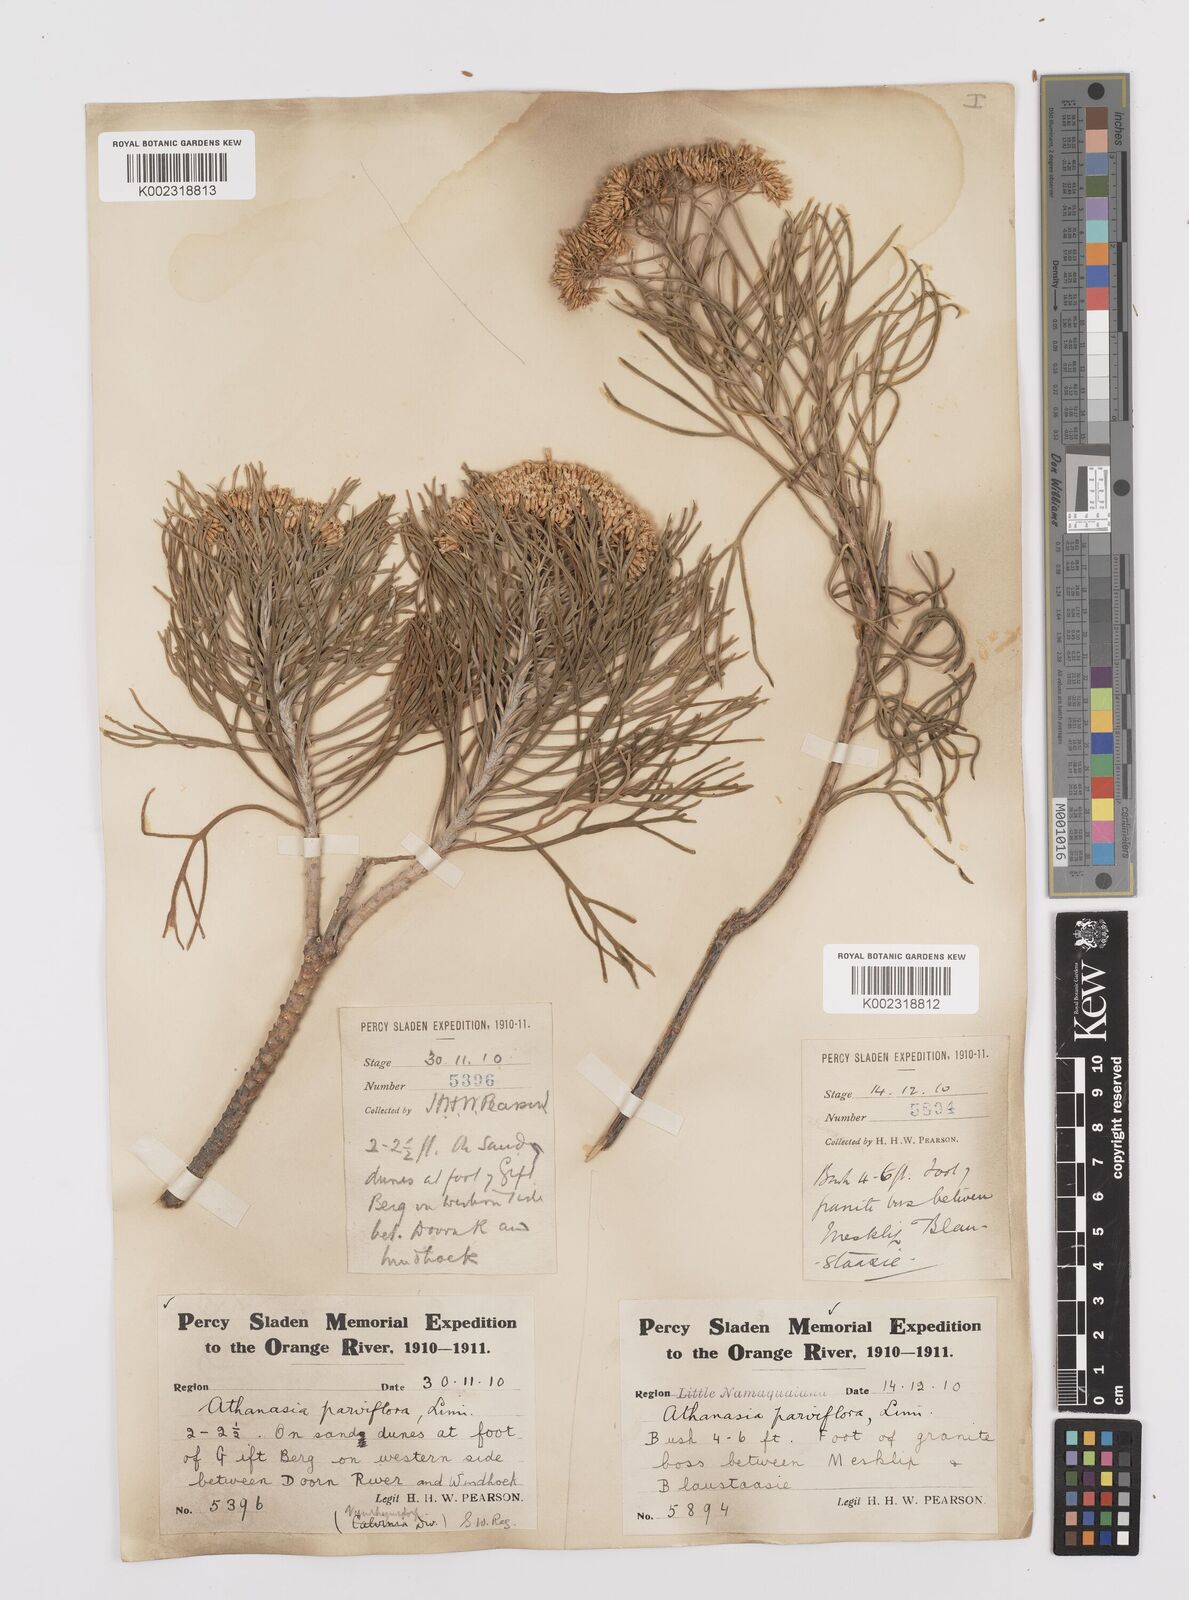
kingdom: Plantae
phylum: Tracheophyta
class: Magnoliopsida
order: Asterales
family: Asteraceae
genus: Hymenolepis
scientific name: Hymenolepis crithmifolia
